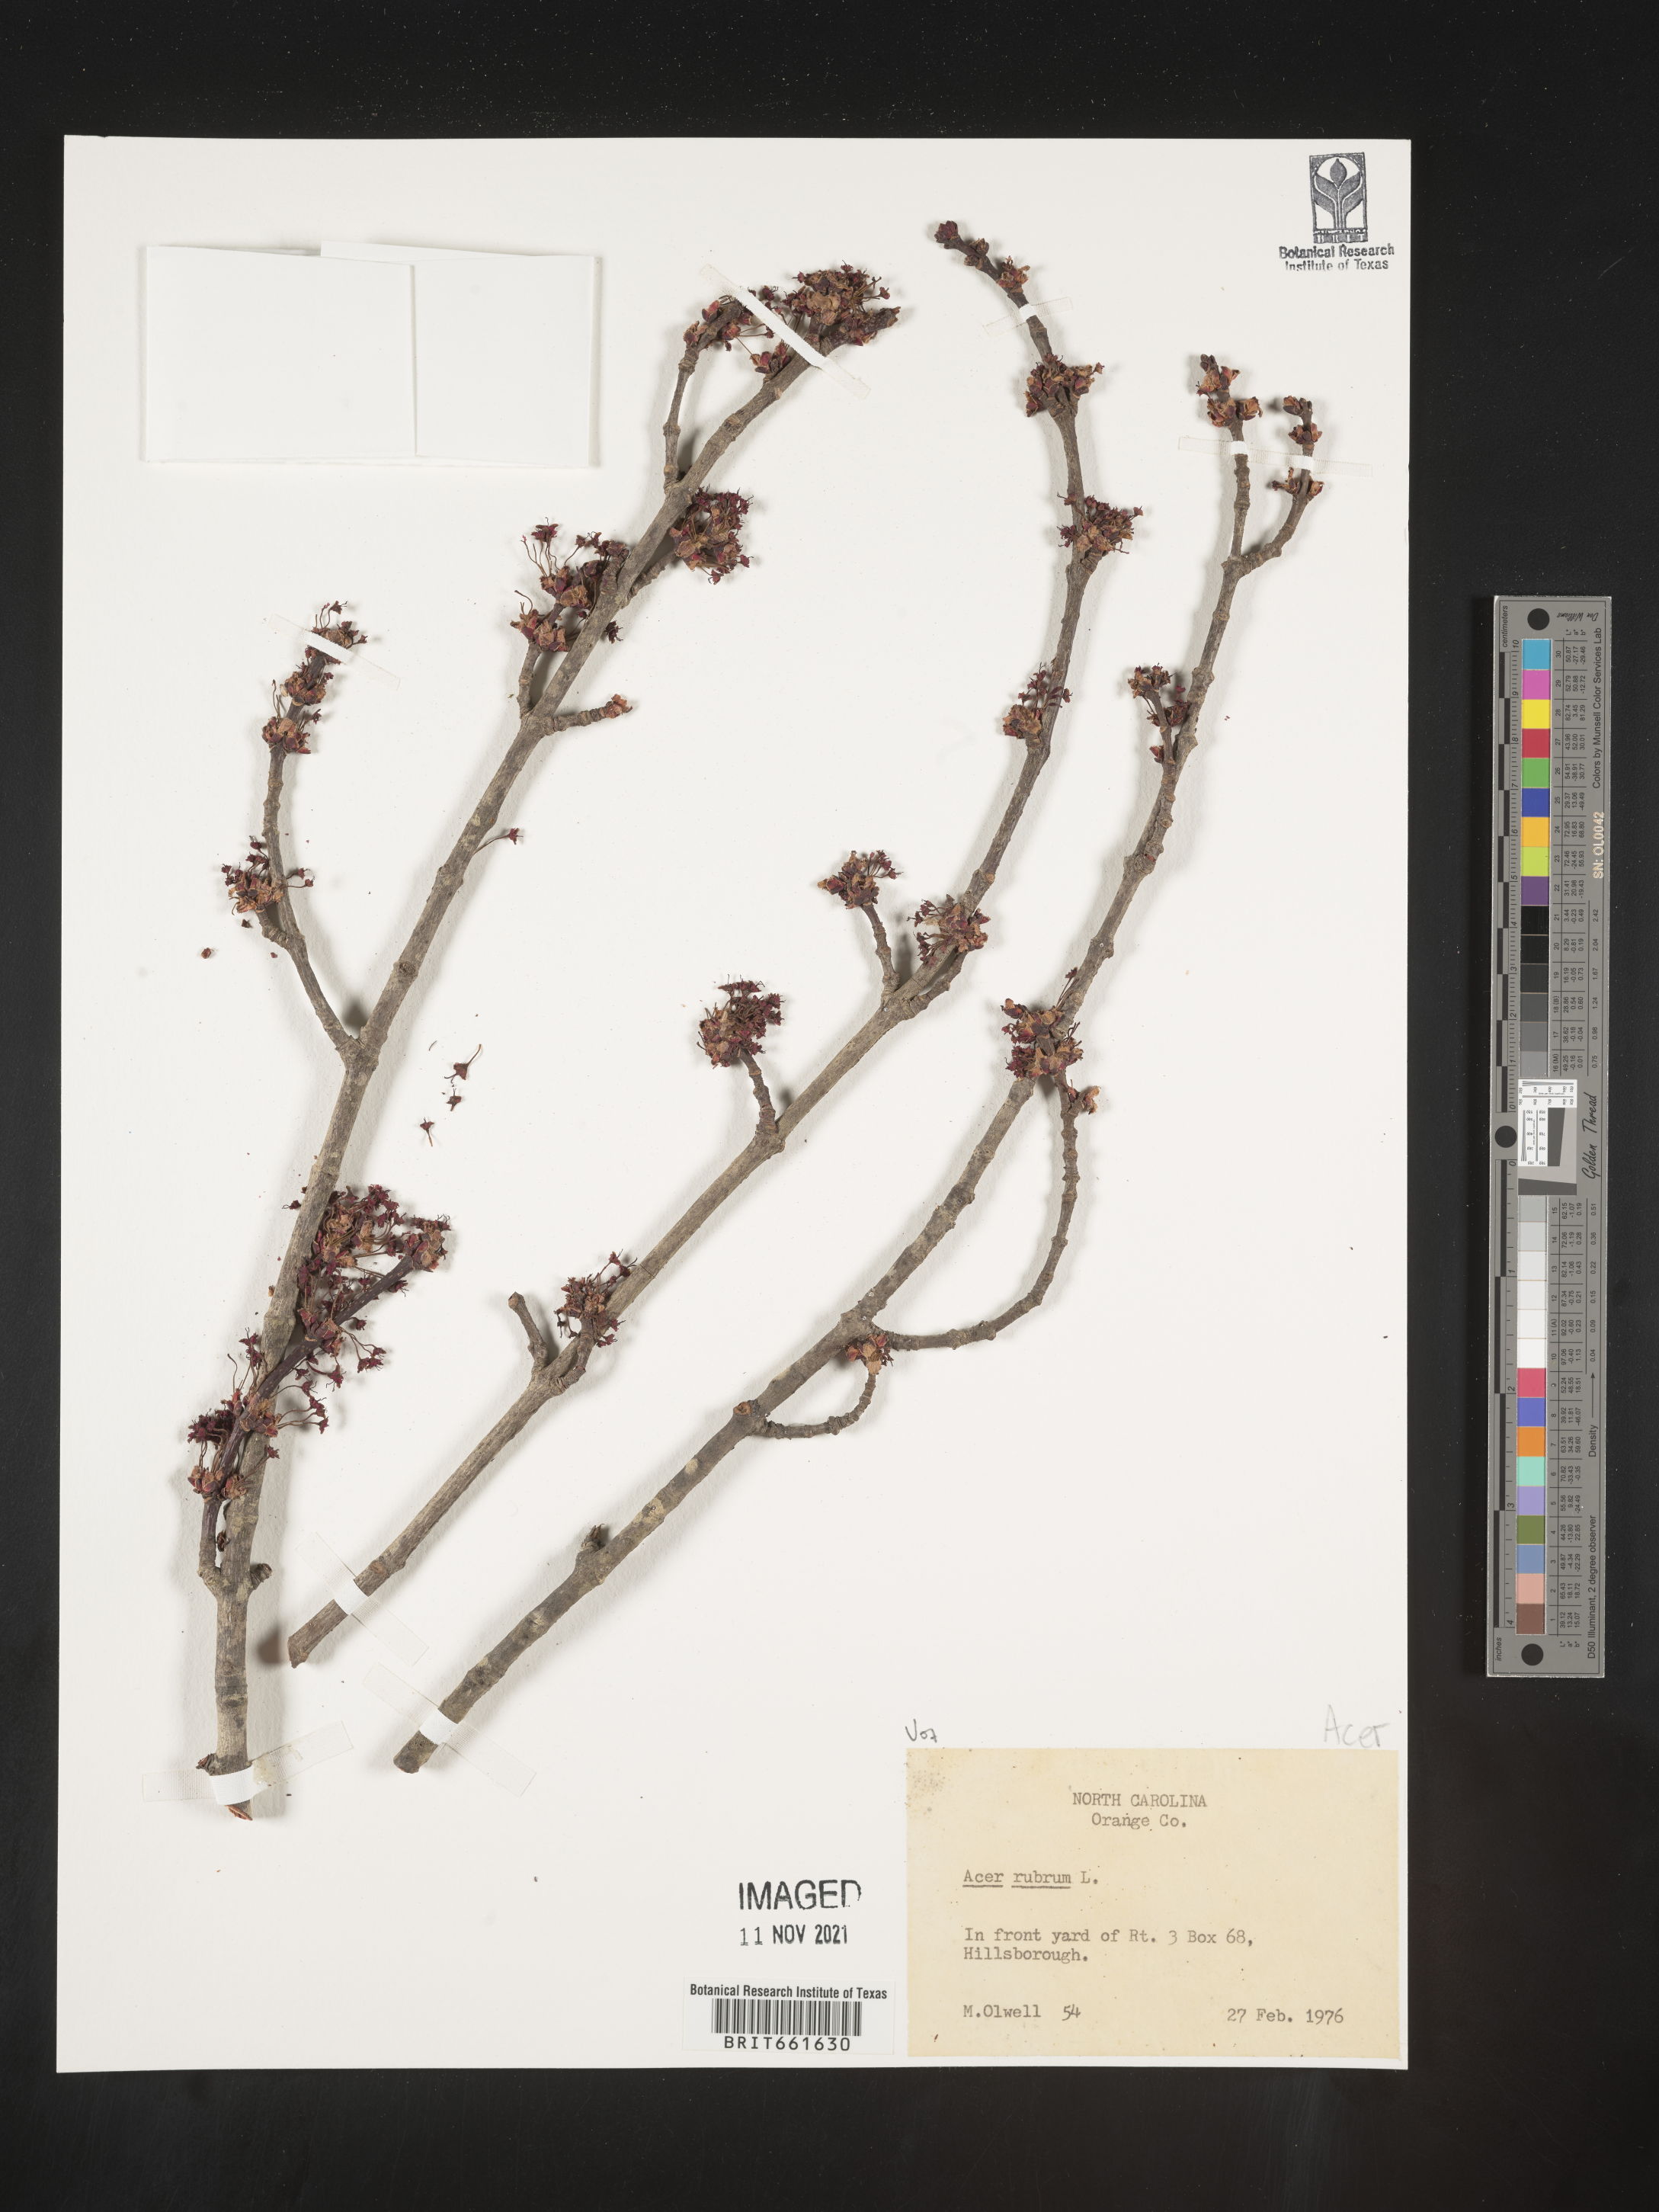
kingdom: Plantae
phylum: Tracheophyta
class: Magnoliopsida
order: Sapindales
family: Sapindaceae
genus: Acer
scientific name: Acer rubrum
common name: Red maple
